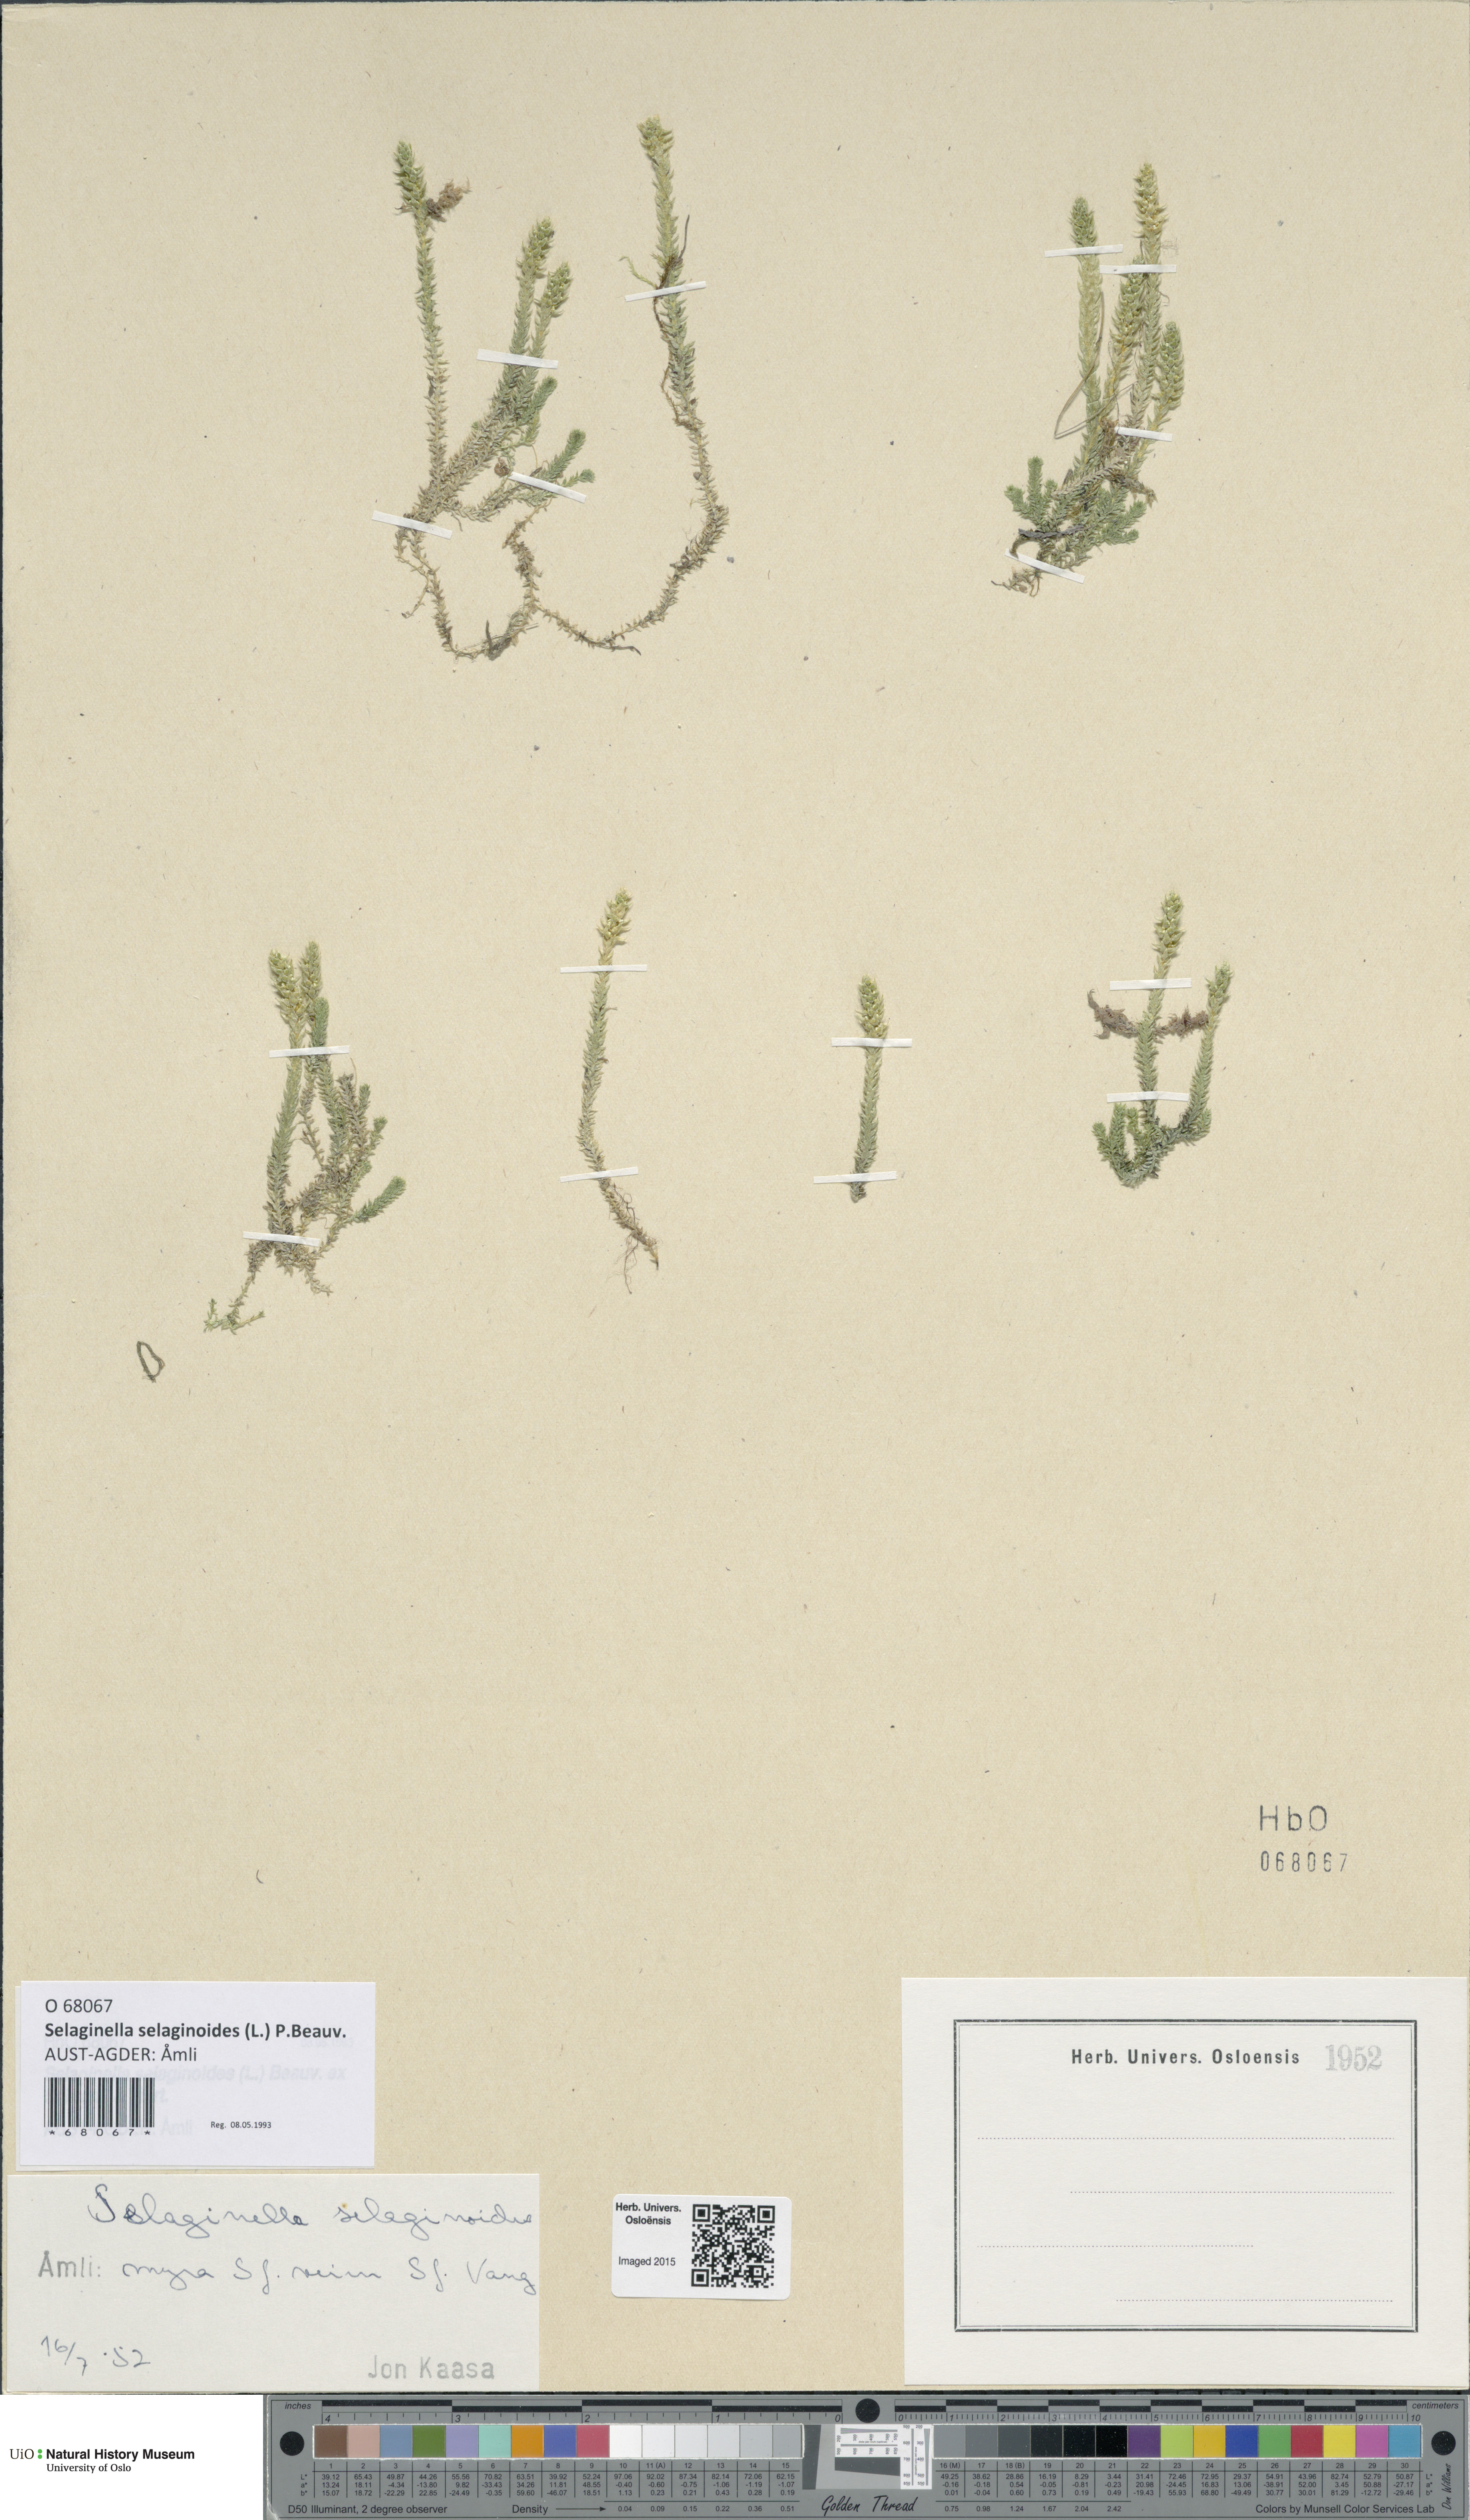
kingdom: Plantae
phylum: Tracheophyta
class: Lycopodiopsida
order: Selaginellales
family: Selaginellaceae
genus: Selaginella
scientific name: Selaginella selaginoides
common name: Prickly mountain-moss
